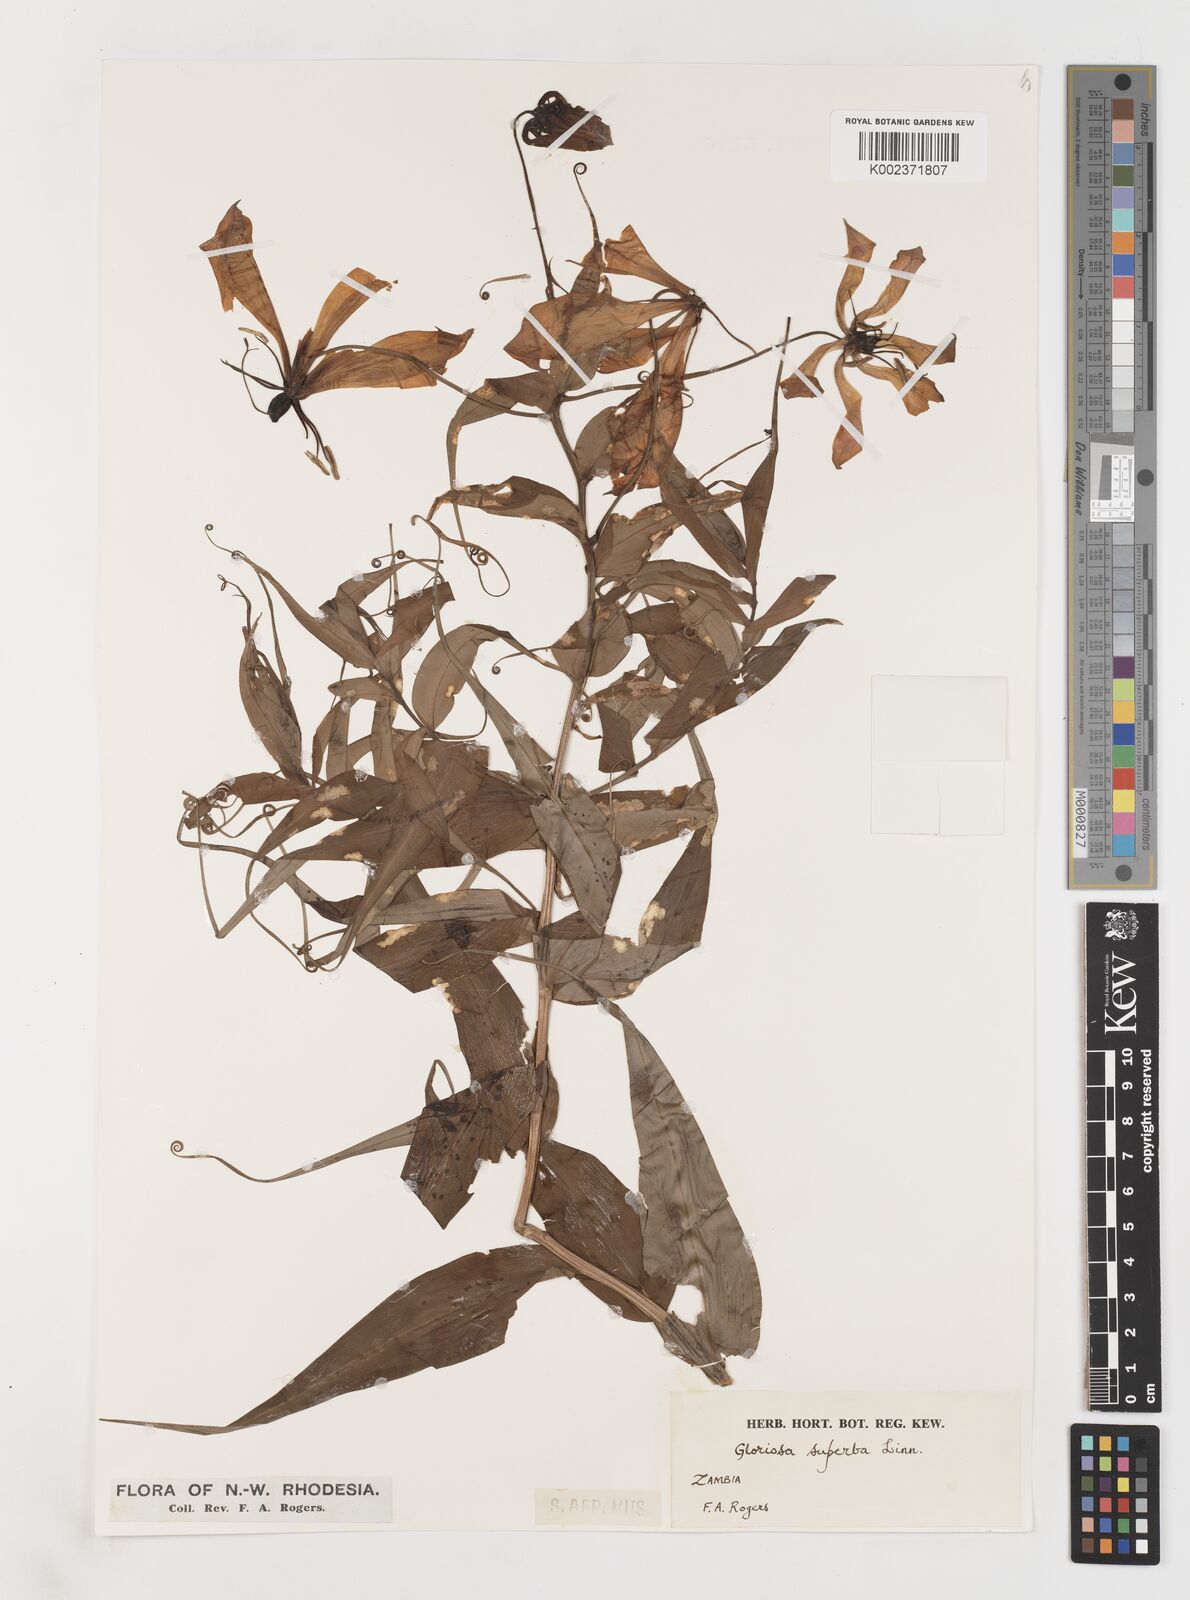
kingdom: Plantae
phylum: Tracheophyta
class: Liliopsida
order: Liliales
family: Colchicaceae
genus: Gloriosa
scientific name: Gloriosa simplex
